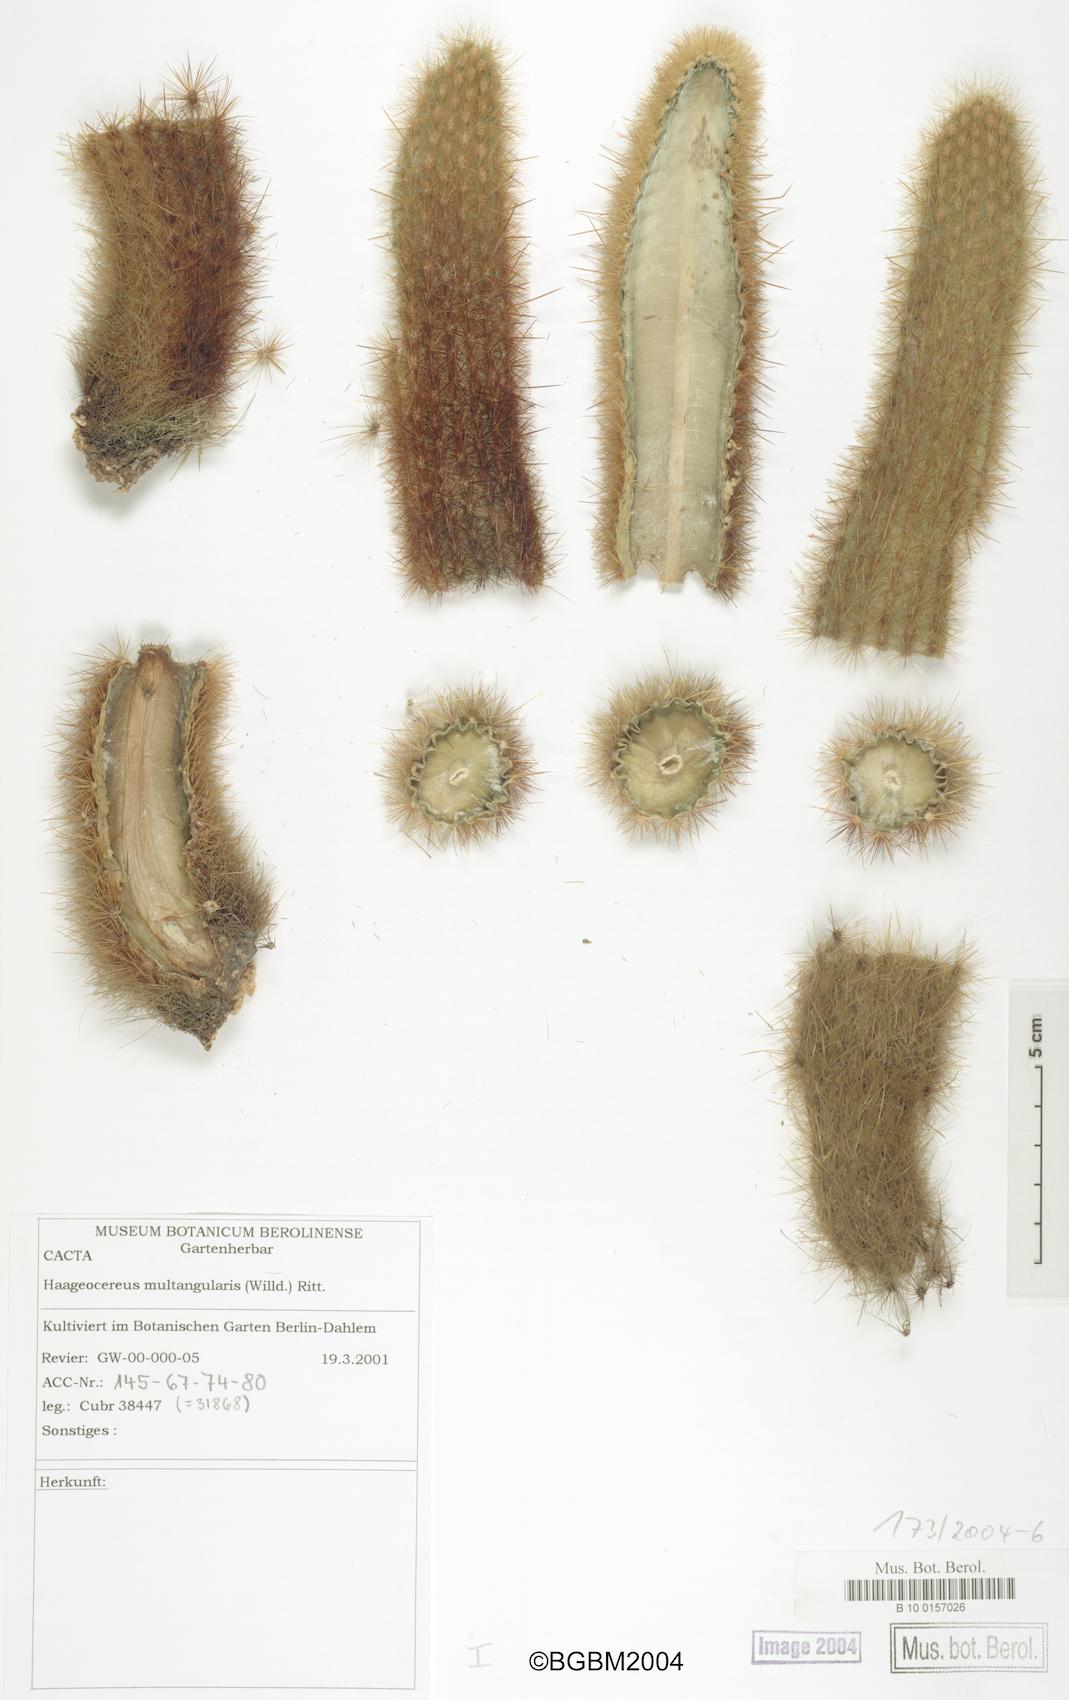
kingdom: Plantae
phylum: Tracheophyta
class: Magnoliopsida
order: Caryophyllales
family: Cactaceae
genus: Haageocereus
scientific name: Haageocereus pseudomelanostele
